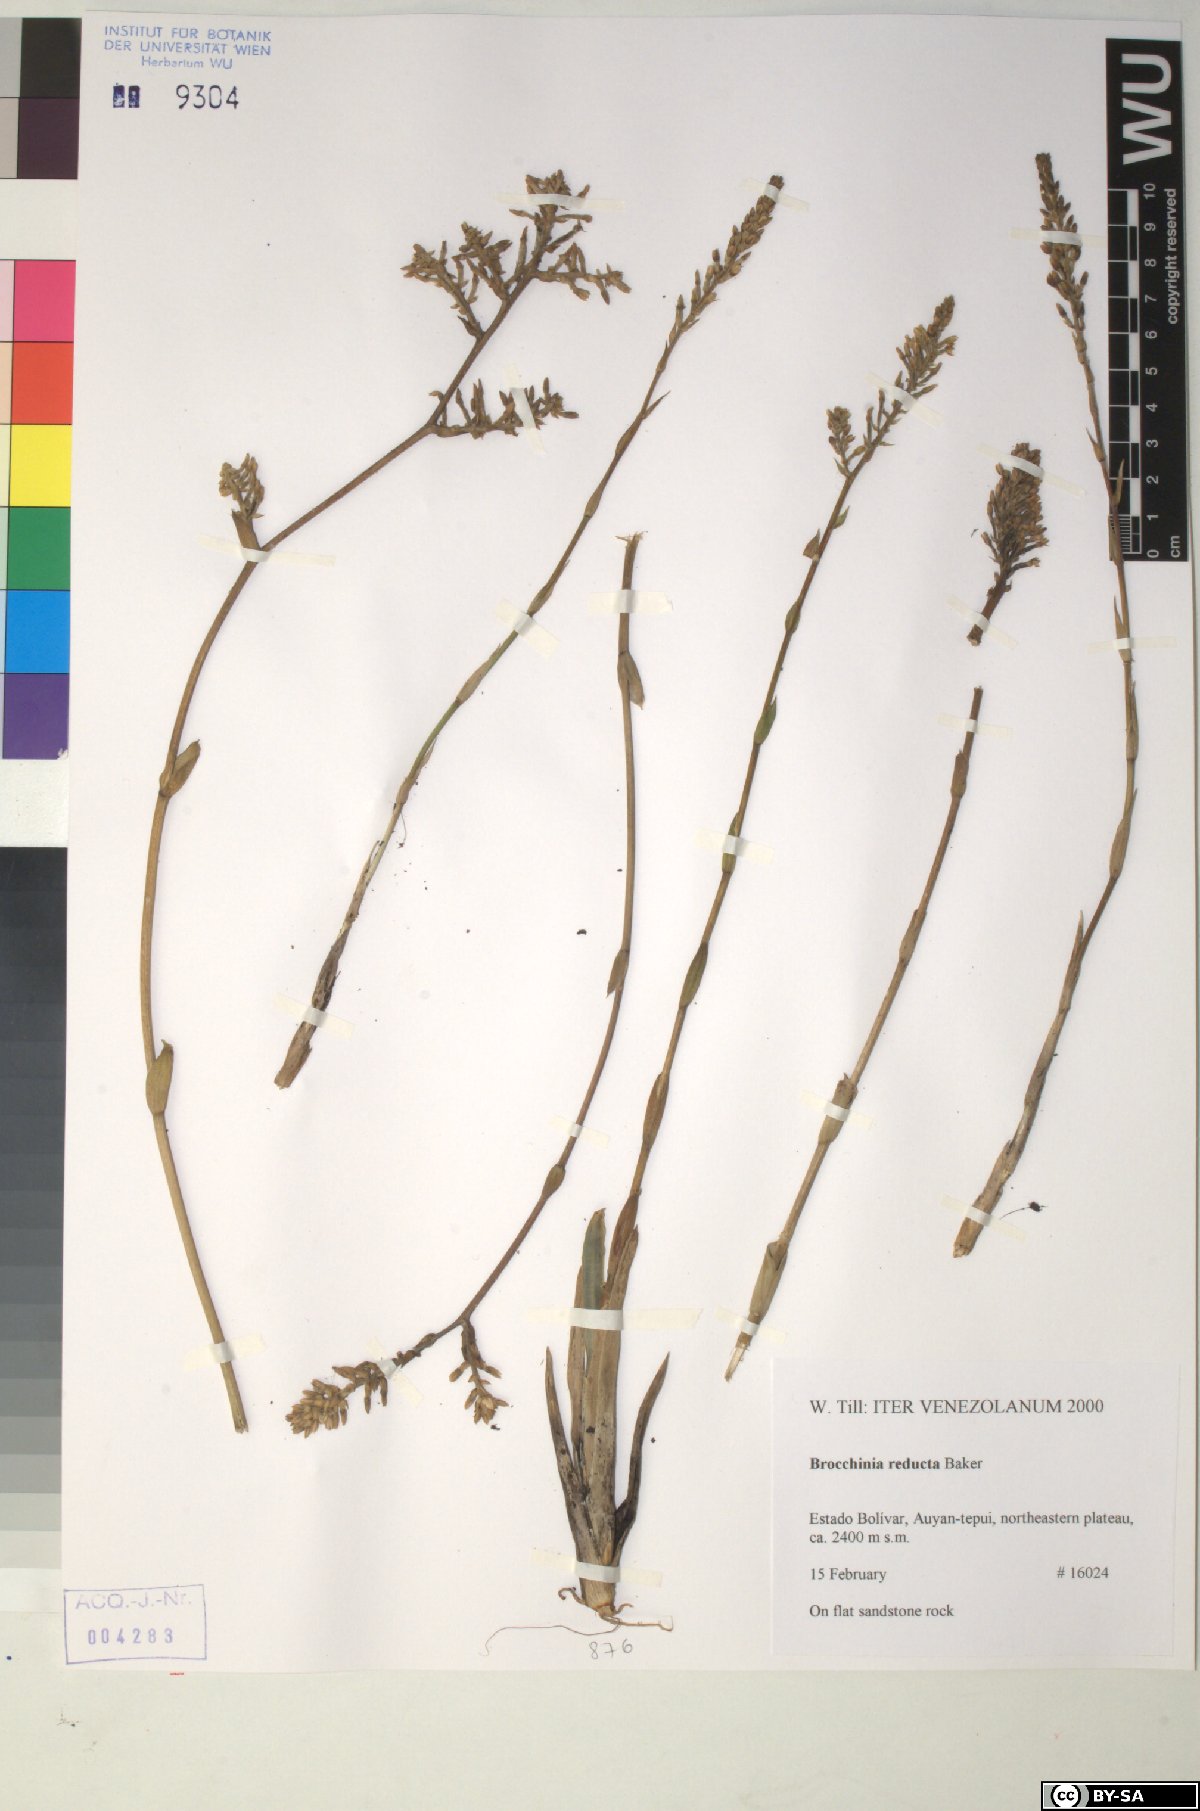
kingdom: Plantae
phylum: Tracheophyta
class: Liliopsida
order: Poales
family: Bromeliaceae
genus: Brocchinia
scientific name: Brocchinia reducta
